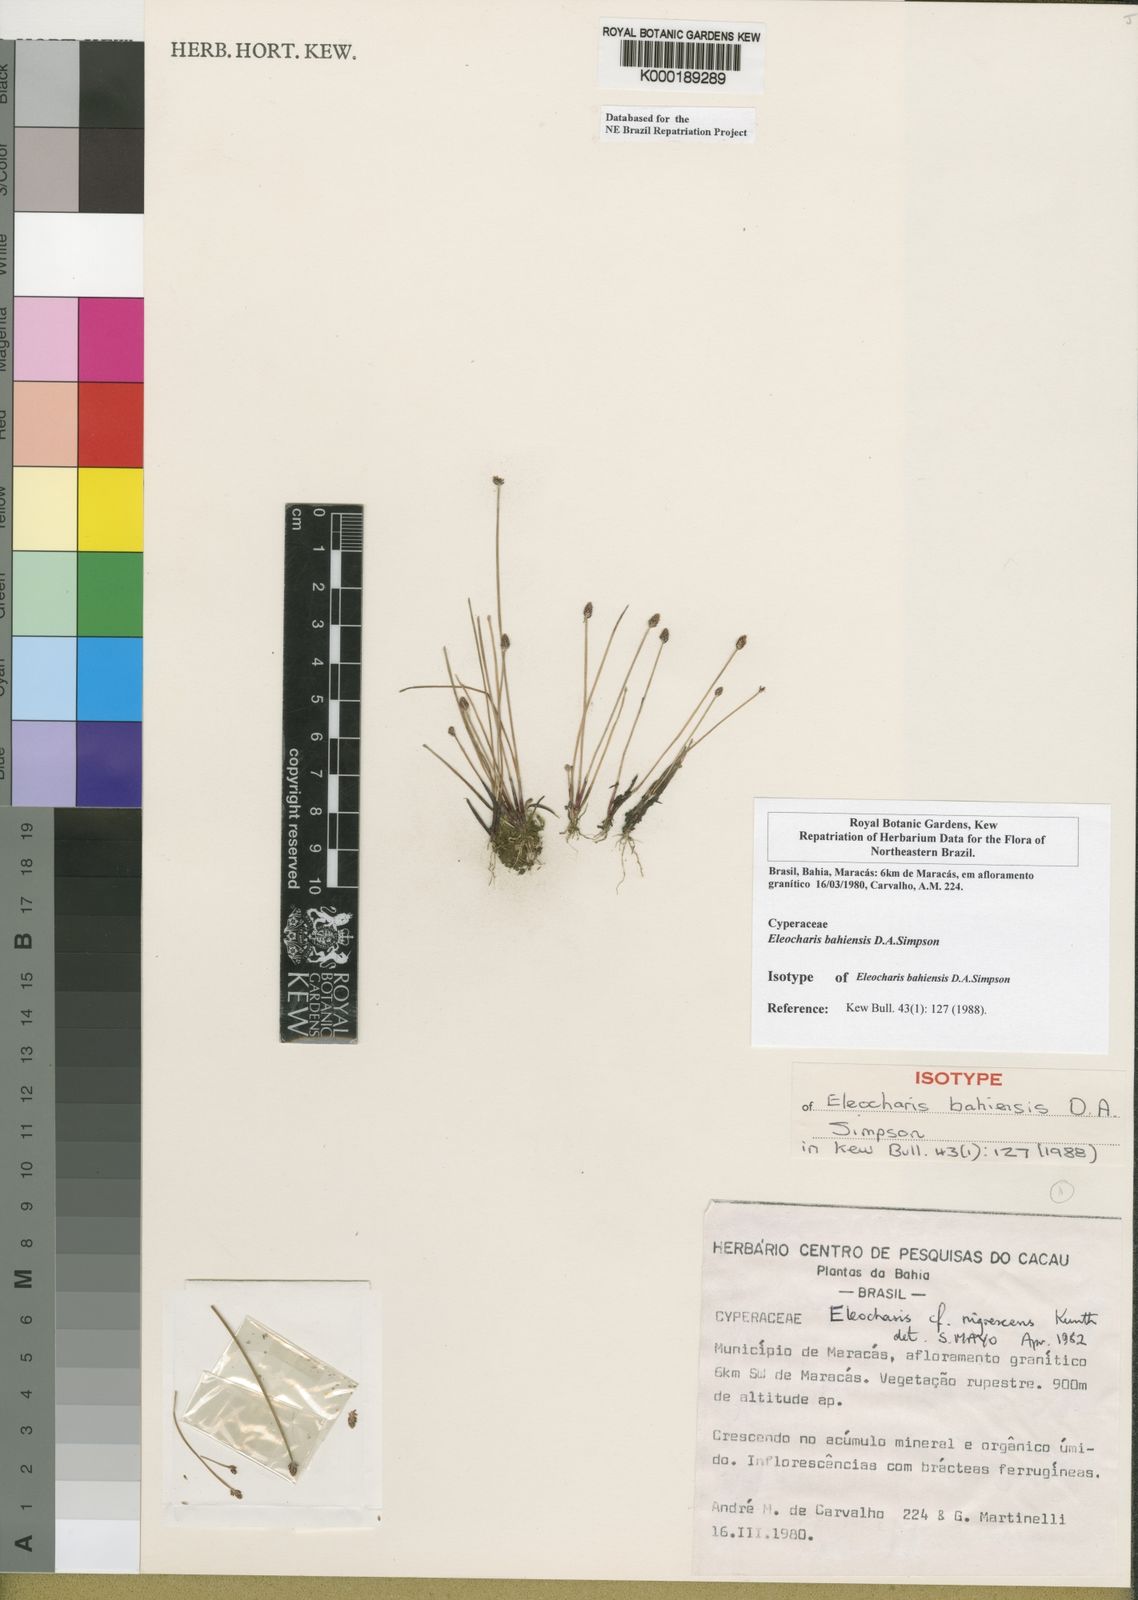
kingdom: Plantae
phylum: Tracheophyta
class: Liliopsida
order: Poales
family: Cyperaceae
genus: Eleocharis
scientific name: Eleocharis bahiensis
